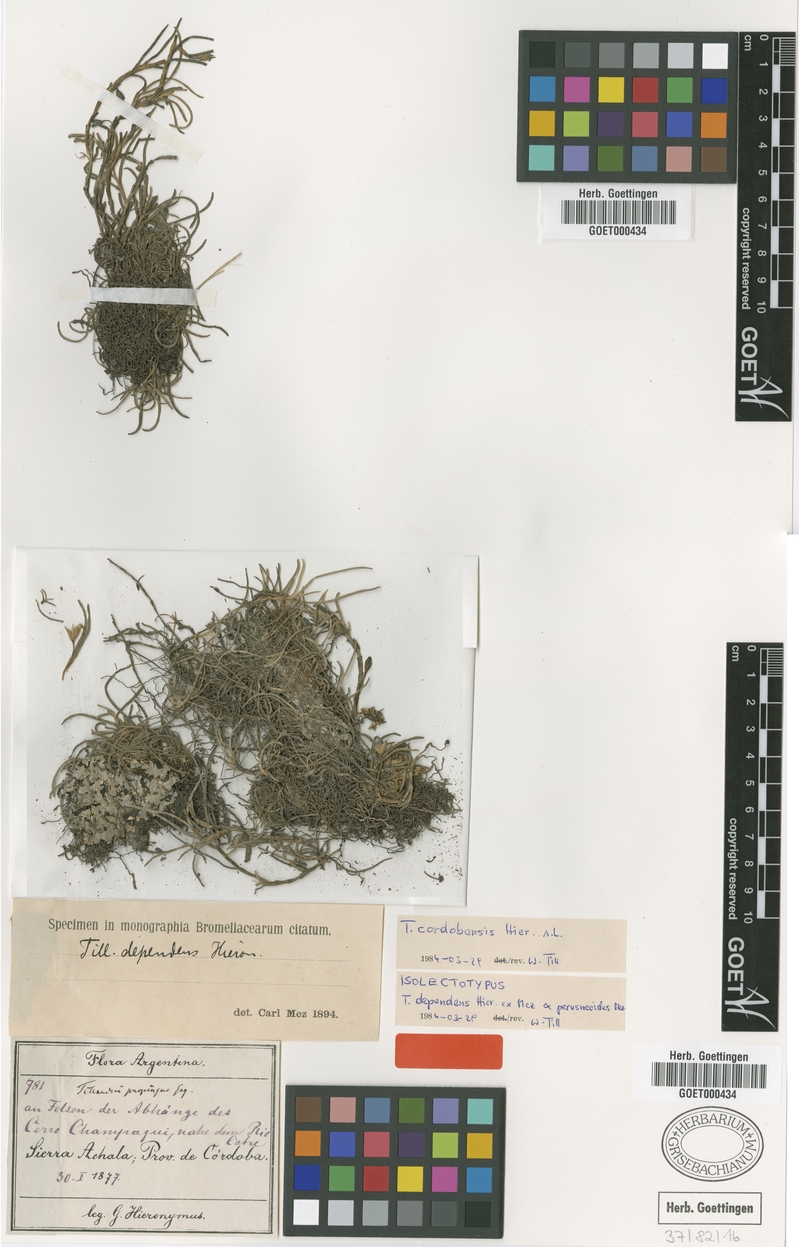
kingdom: Plantae
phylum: Tracheophyta
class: Liliopsida
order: Poales
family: Bromeliaceae
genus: Tillandsia
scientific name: Tillandsia virescens
